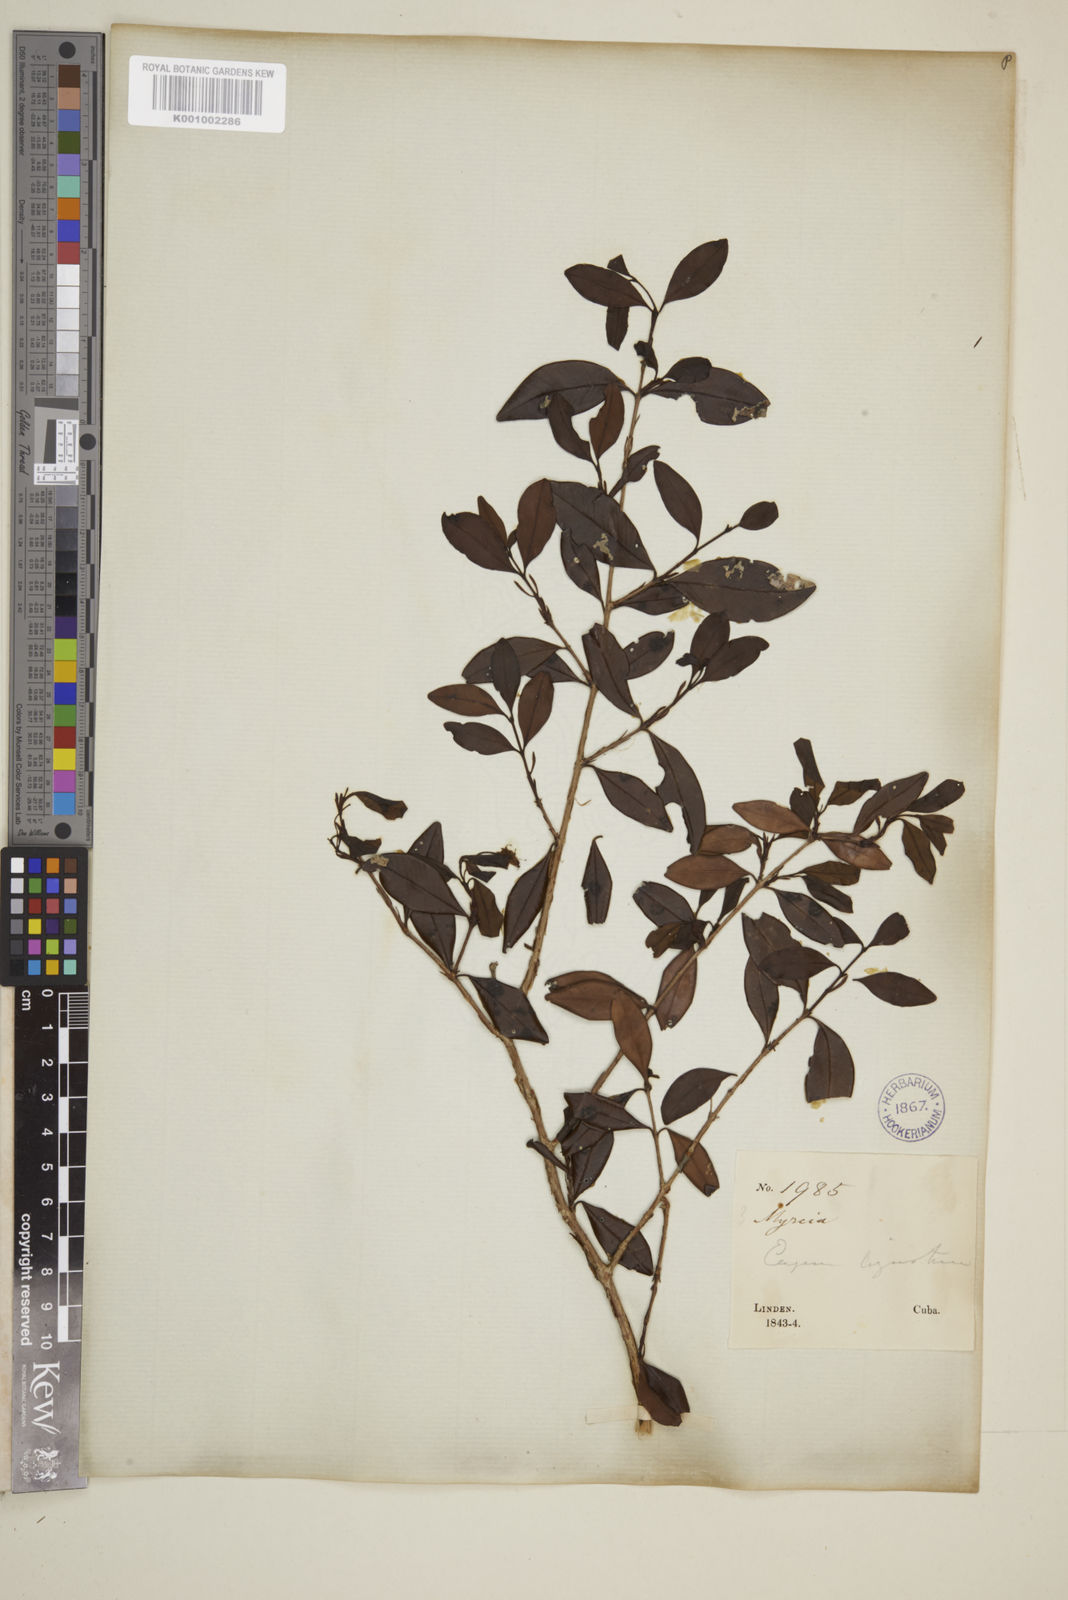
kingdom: Plantae
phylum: Tracheophyta
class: Magnoliopsida
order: Myrtales
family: Myrtaceae
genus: Eugenia
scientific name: Eugenia ligustrina
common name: Privet stopper
